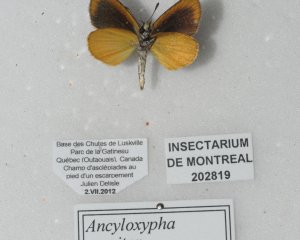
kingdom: Animalia
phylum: Arthropoda
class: Insecta
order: Lepidoptera
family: Hesperiidae
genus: Ancyloxypha
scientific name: Ancyloxypha numitor
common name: Least Skipper
